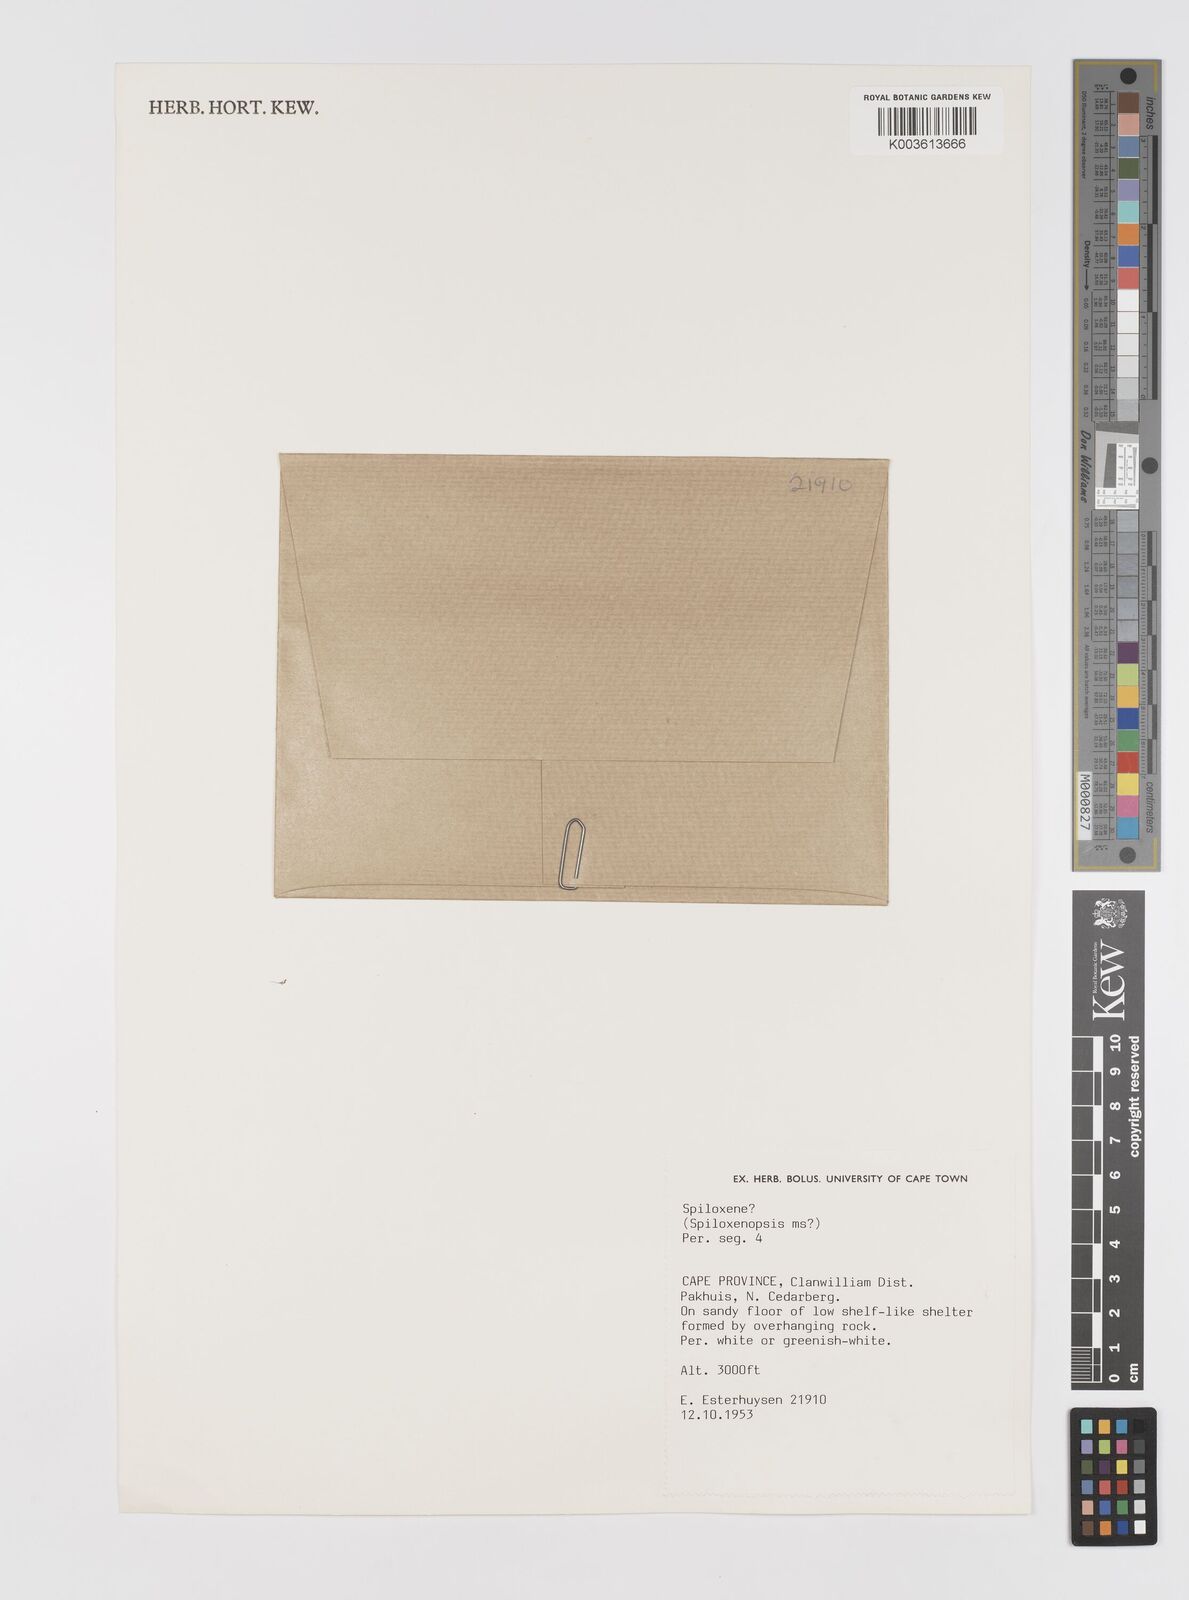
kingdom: Plantae
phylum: Tracheophyta
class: Liliopsida
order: Asparagales
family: Hypoxidaceae
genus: Pauridia
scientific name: Pauridia
